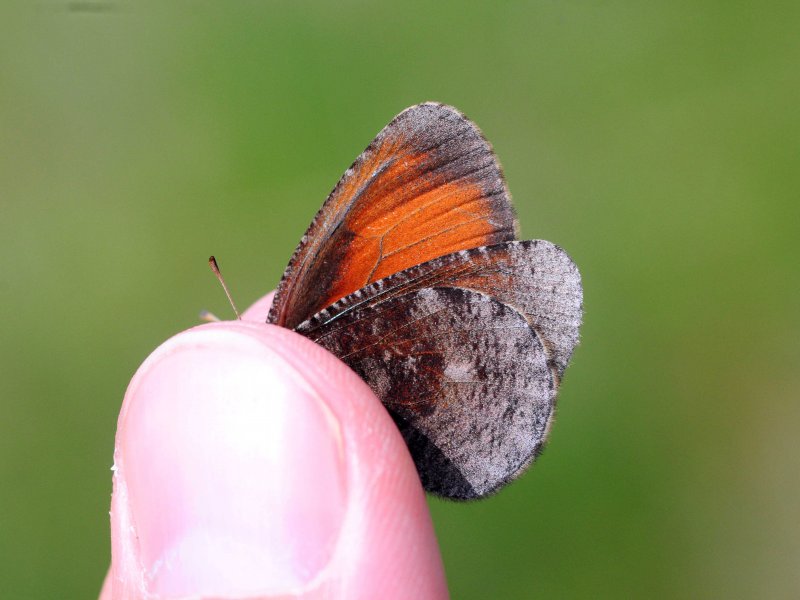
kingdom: Animalia
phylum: Arthropoda
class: Insecta
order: Lepidoptera
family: Nymphalidae
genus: Erebia
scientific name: Erebia discoidalis
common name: Red-disked Alpine
